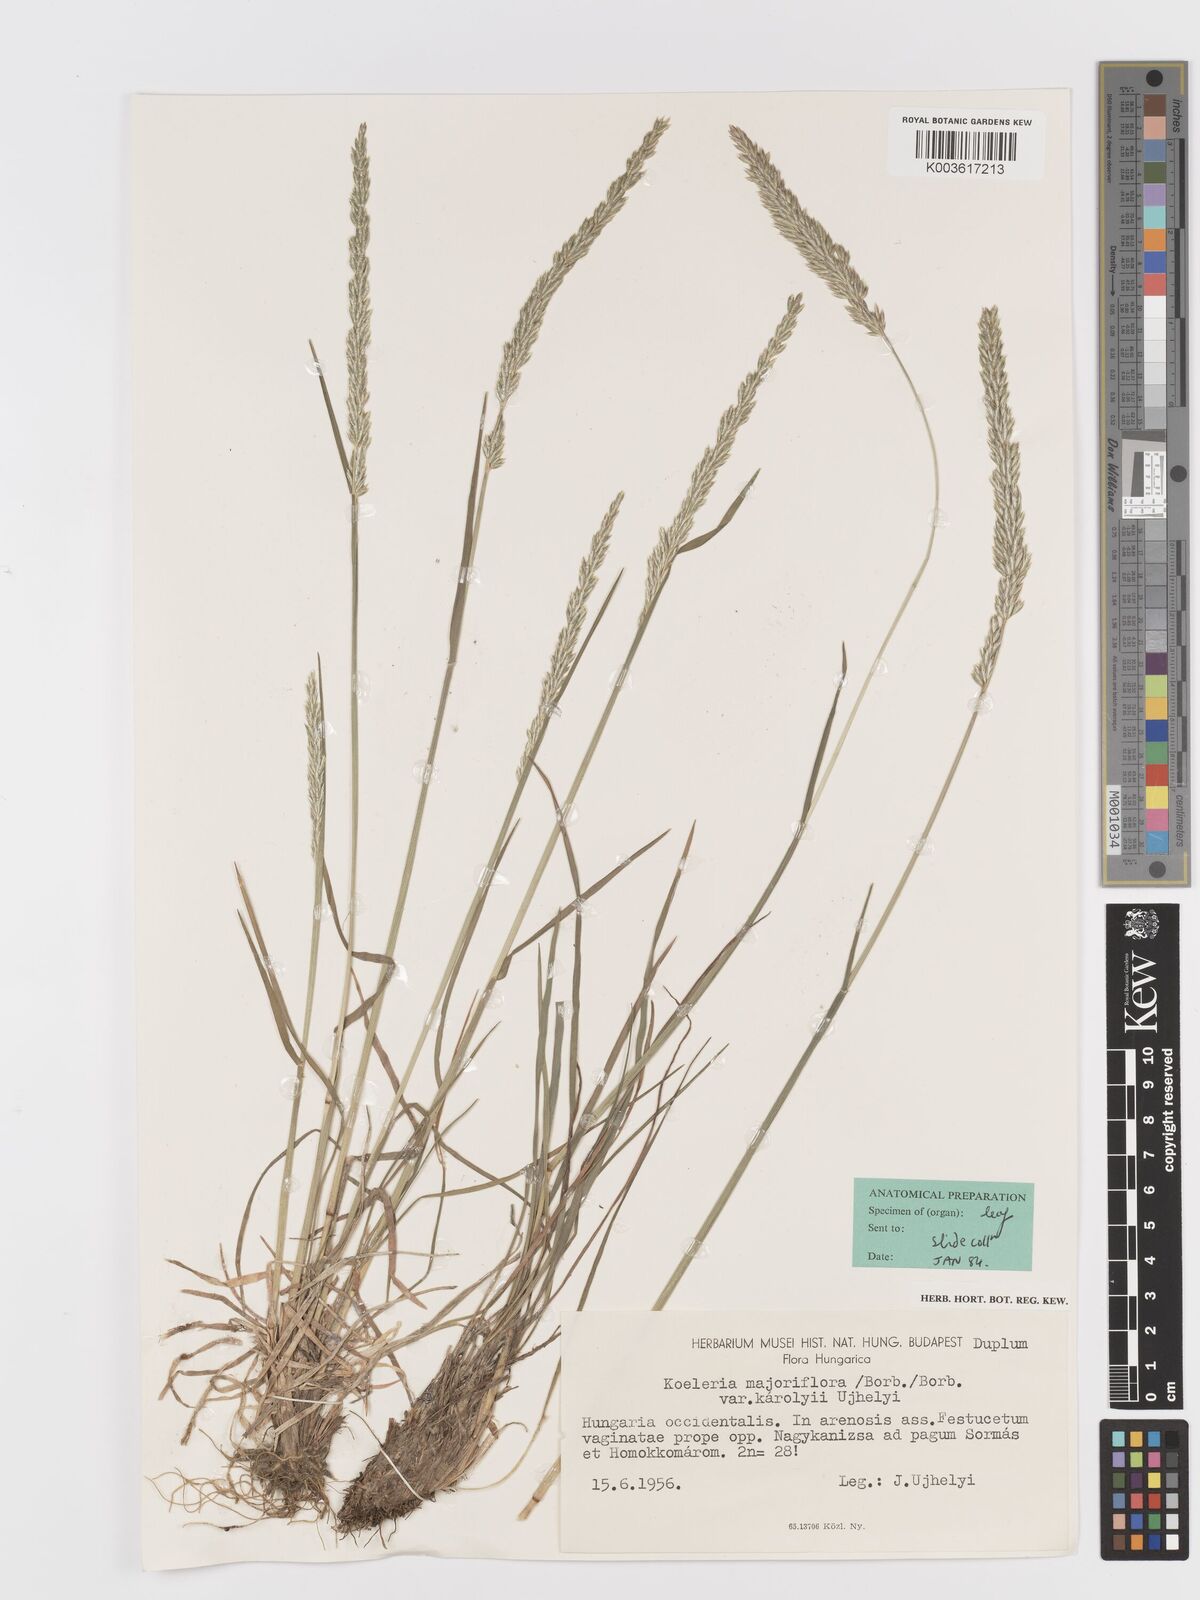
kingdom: Plantae
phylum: Tracheophyta
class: Liliopsida
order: Poales
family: Poaceae
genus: Koeleria
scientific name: Koeleria macrantha
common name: Crested hair-grass
